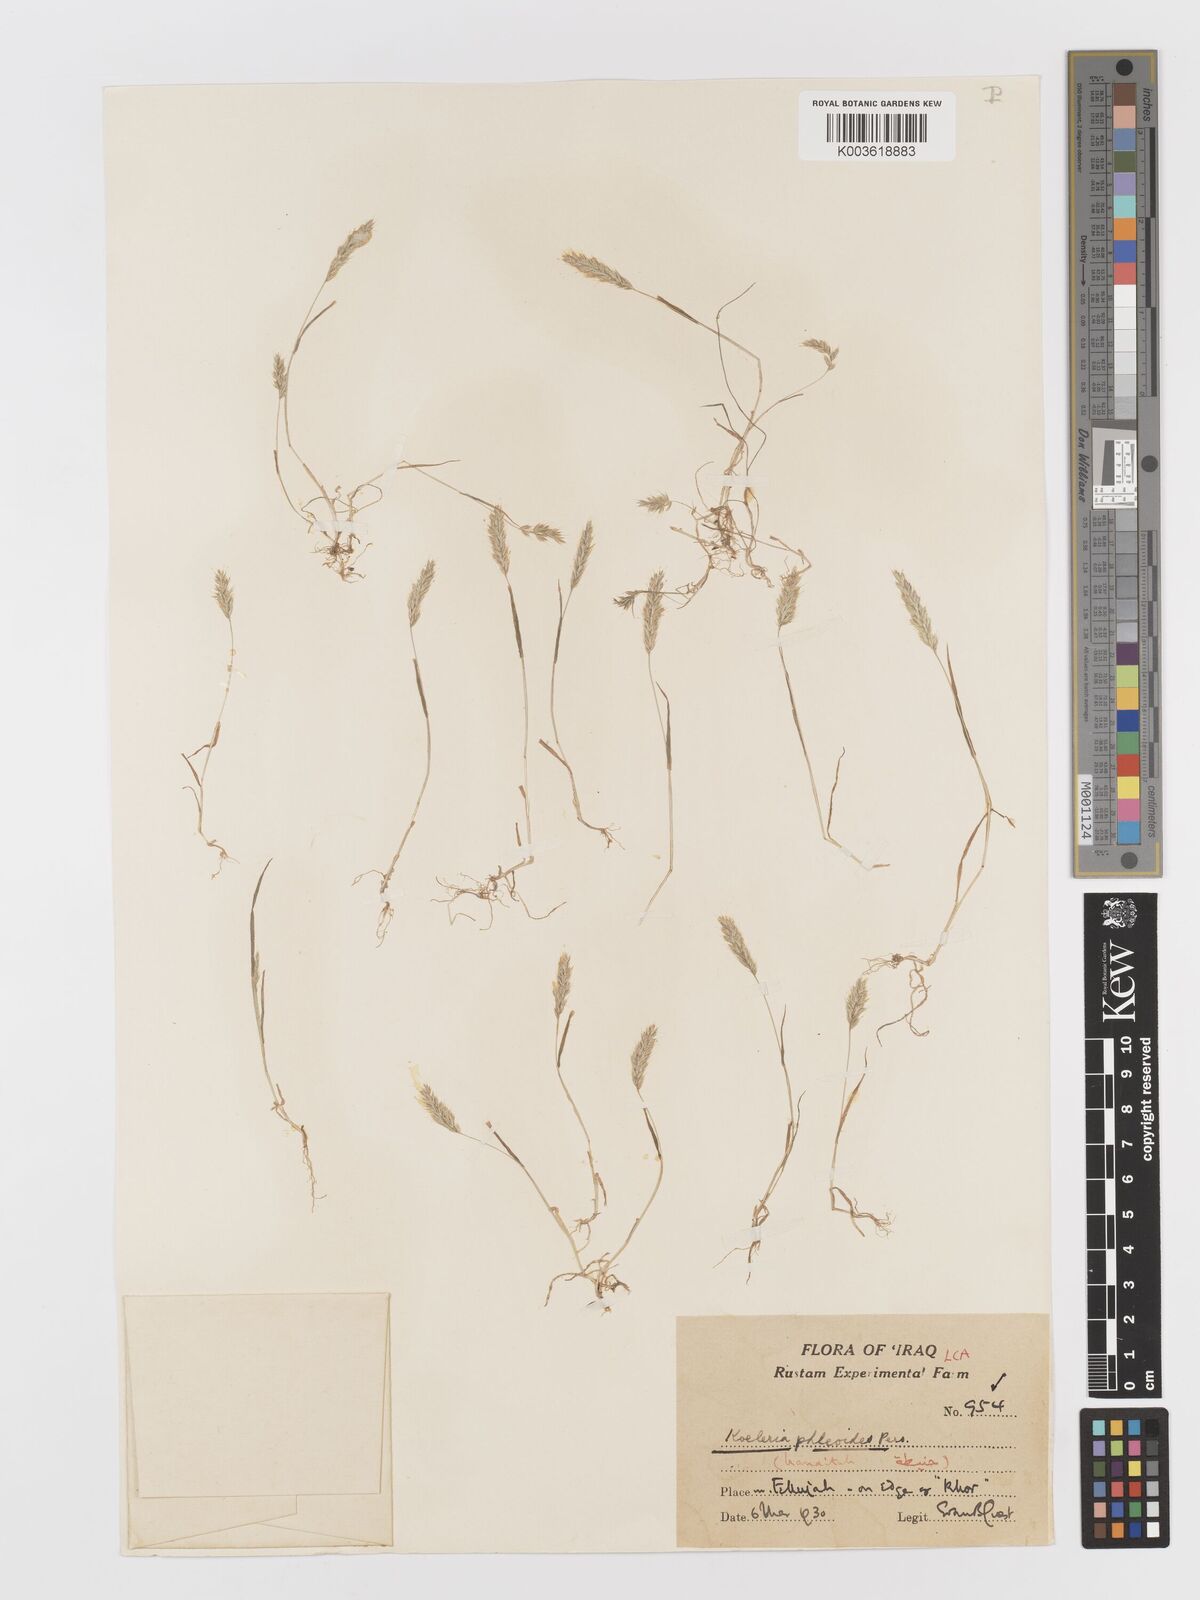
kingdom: Plantae
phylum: Tracheophyta
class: Liliopsida
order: Poales
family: Poaceae
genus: Rostraria
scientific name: Rostraria cristata
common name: Mediterranean hair-grass
